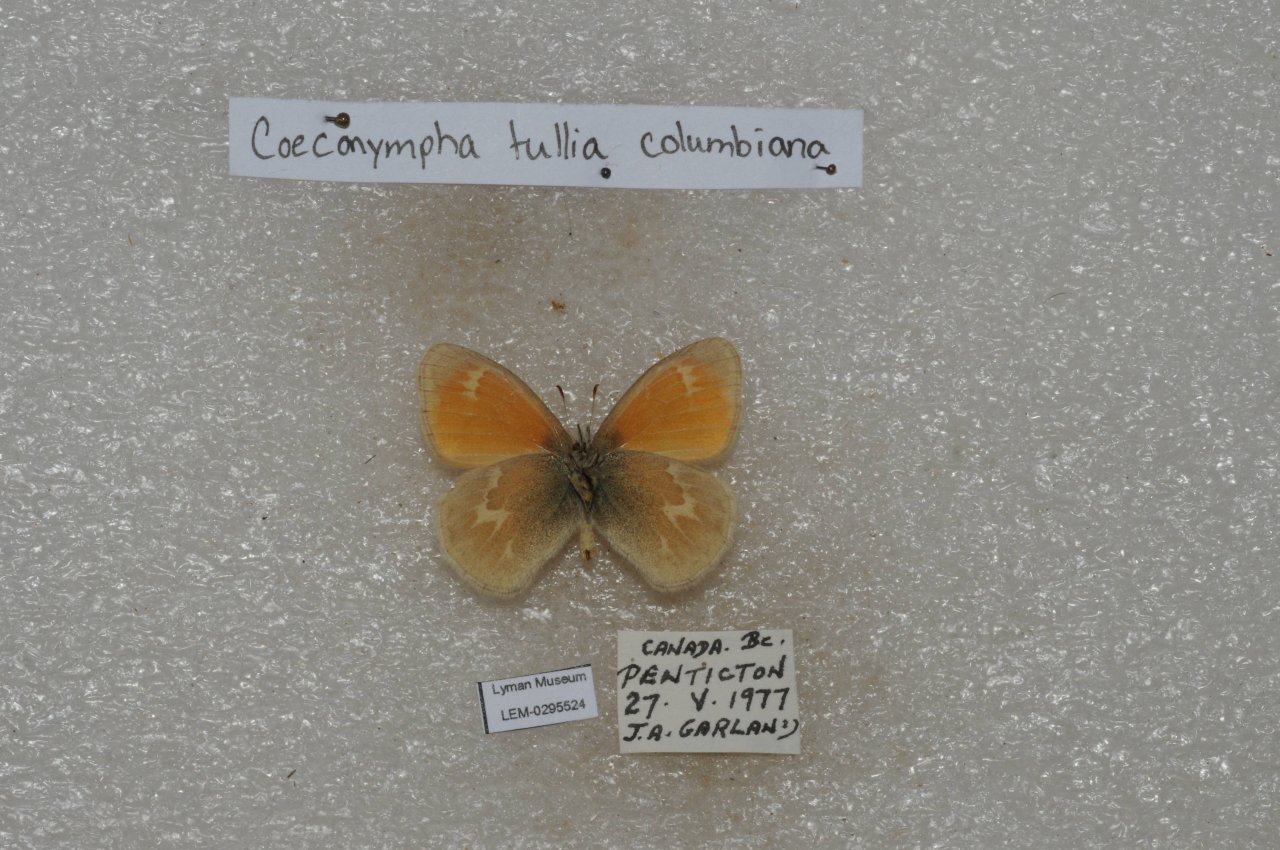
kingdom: Animalia
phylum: Arthropoda
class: Insecta
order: Lepidoptera
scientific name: Lepidoptera
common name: Butterflies
